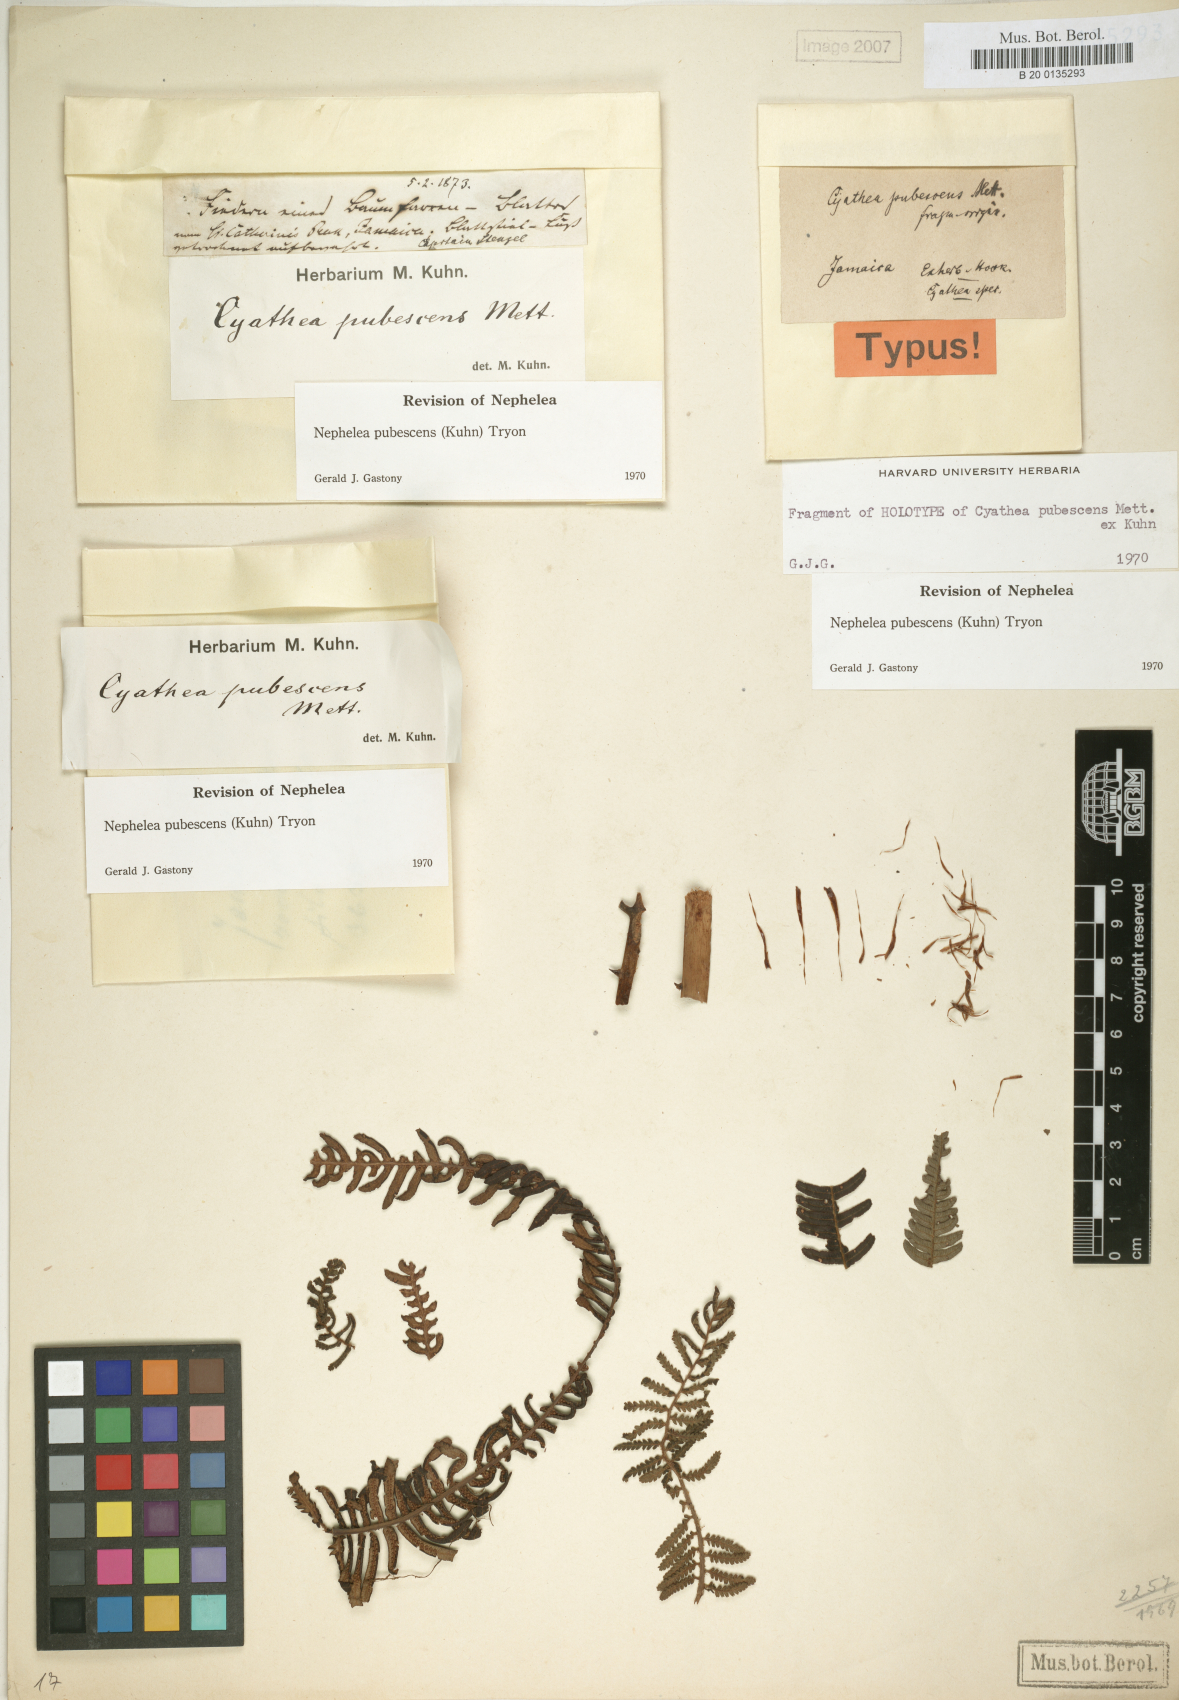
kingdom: Plantae
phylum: Tracheophyta
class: Polypodiopsida
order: Cyatheales
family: Cyatheaceae
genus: Alsophila
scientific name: Alsophila auneae
